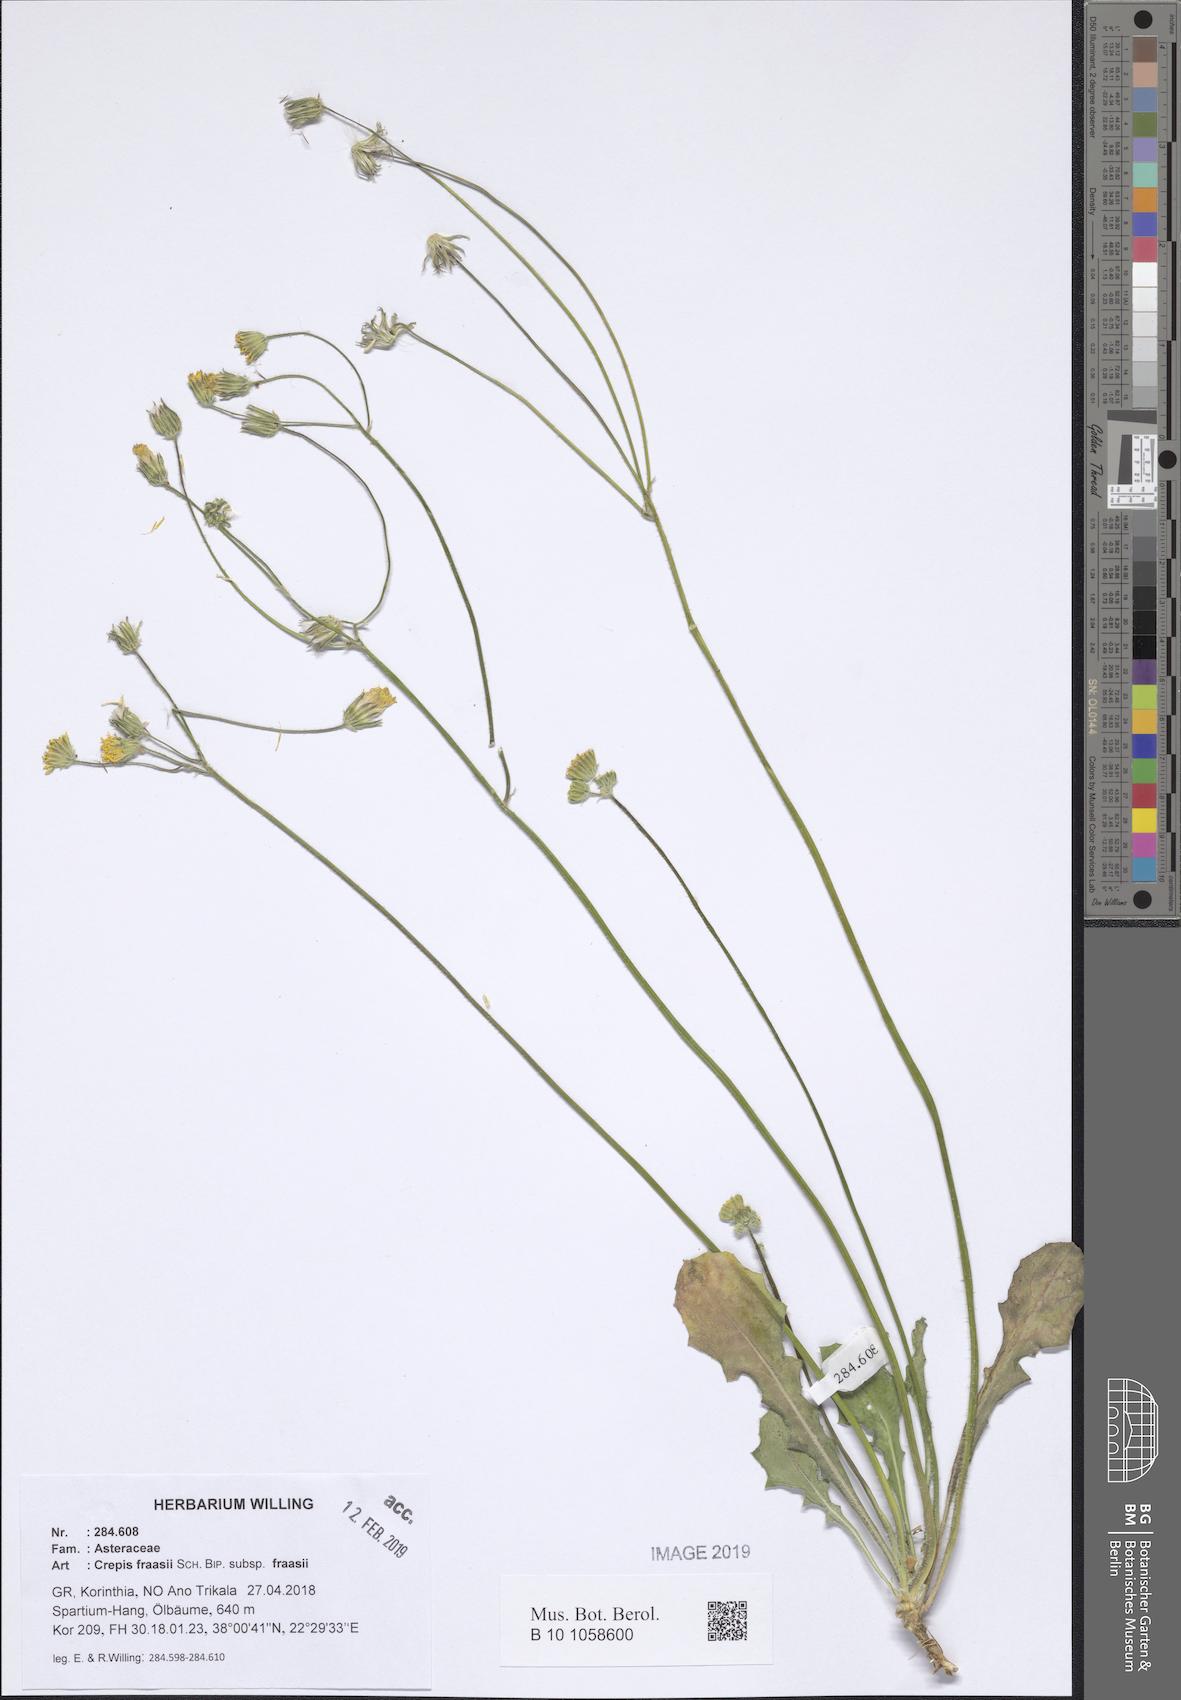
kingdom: Plantae
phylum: Tracheophyta
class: Magnoliopsida
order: Asterales
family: Asteraceae
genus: Crepis
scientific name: Crepis fraasii
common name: Hawk's-beard
